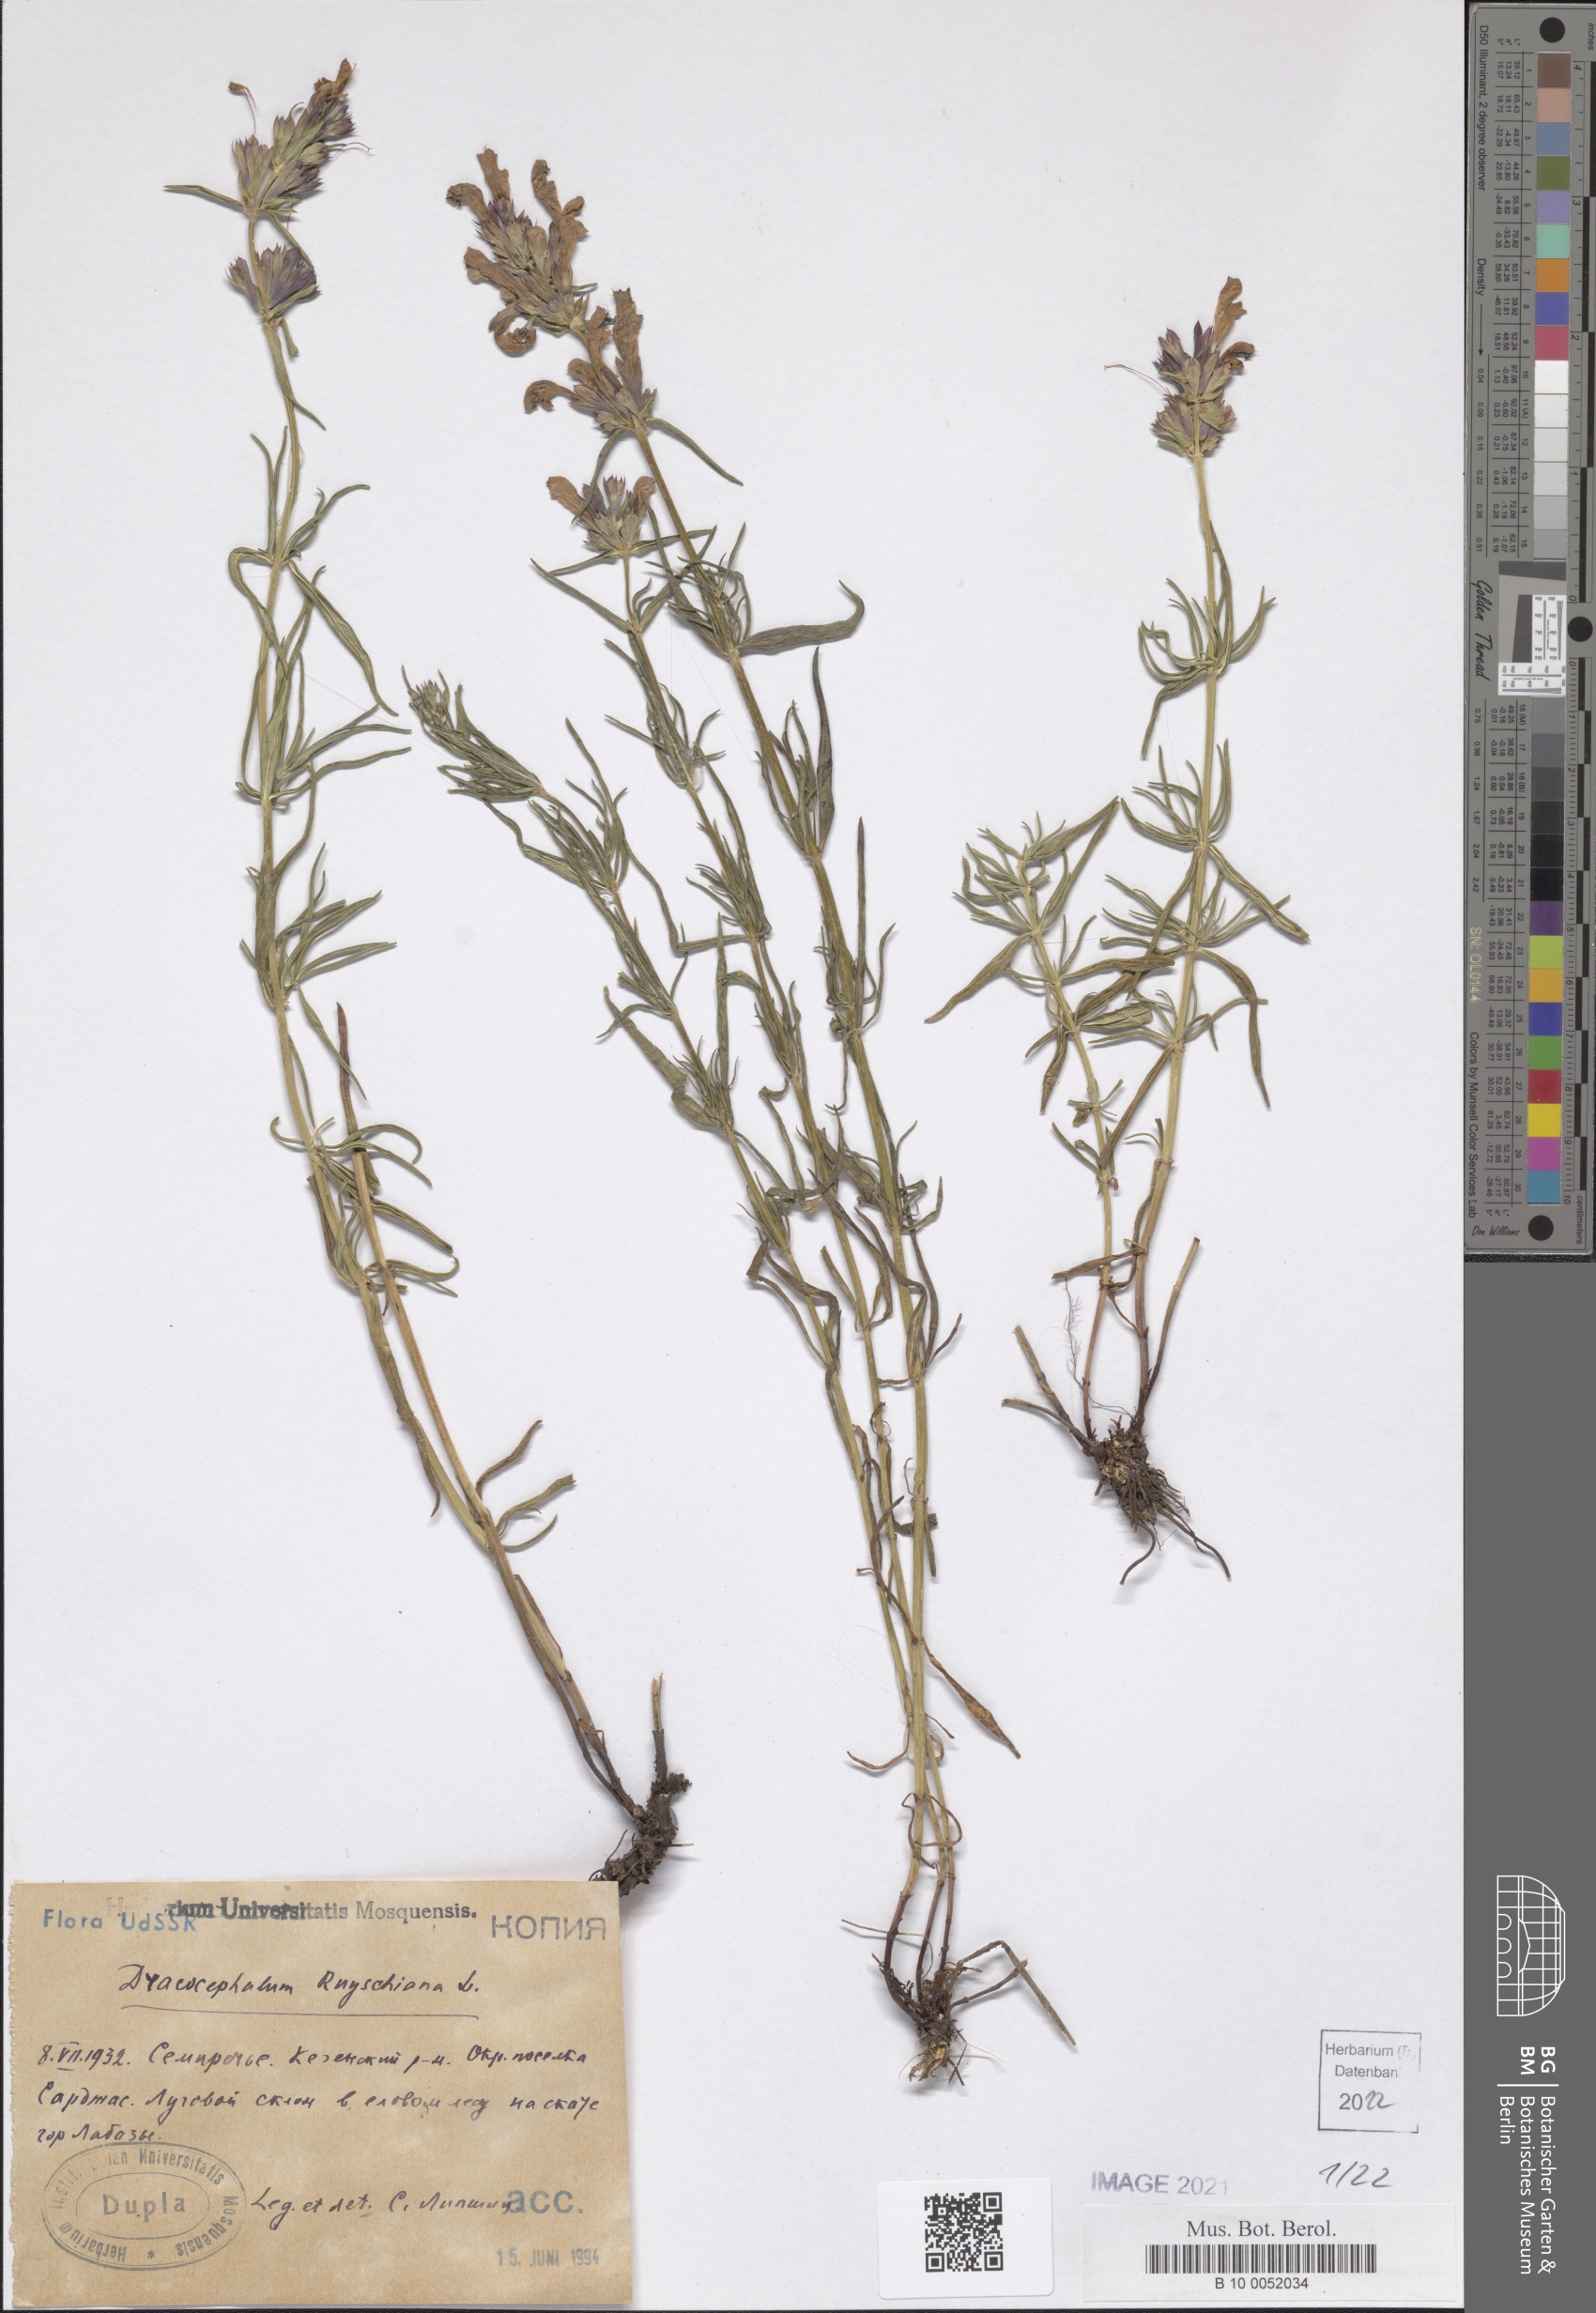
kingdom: Plantae
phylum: Tracheophyta
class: Magnoliopsida
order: Lamiales
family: Lamiaceae
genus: Dracocephalum
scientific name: Dracocephalum ruyschiana
